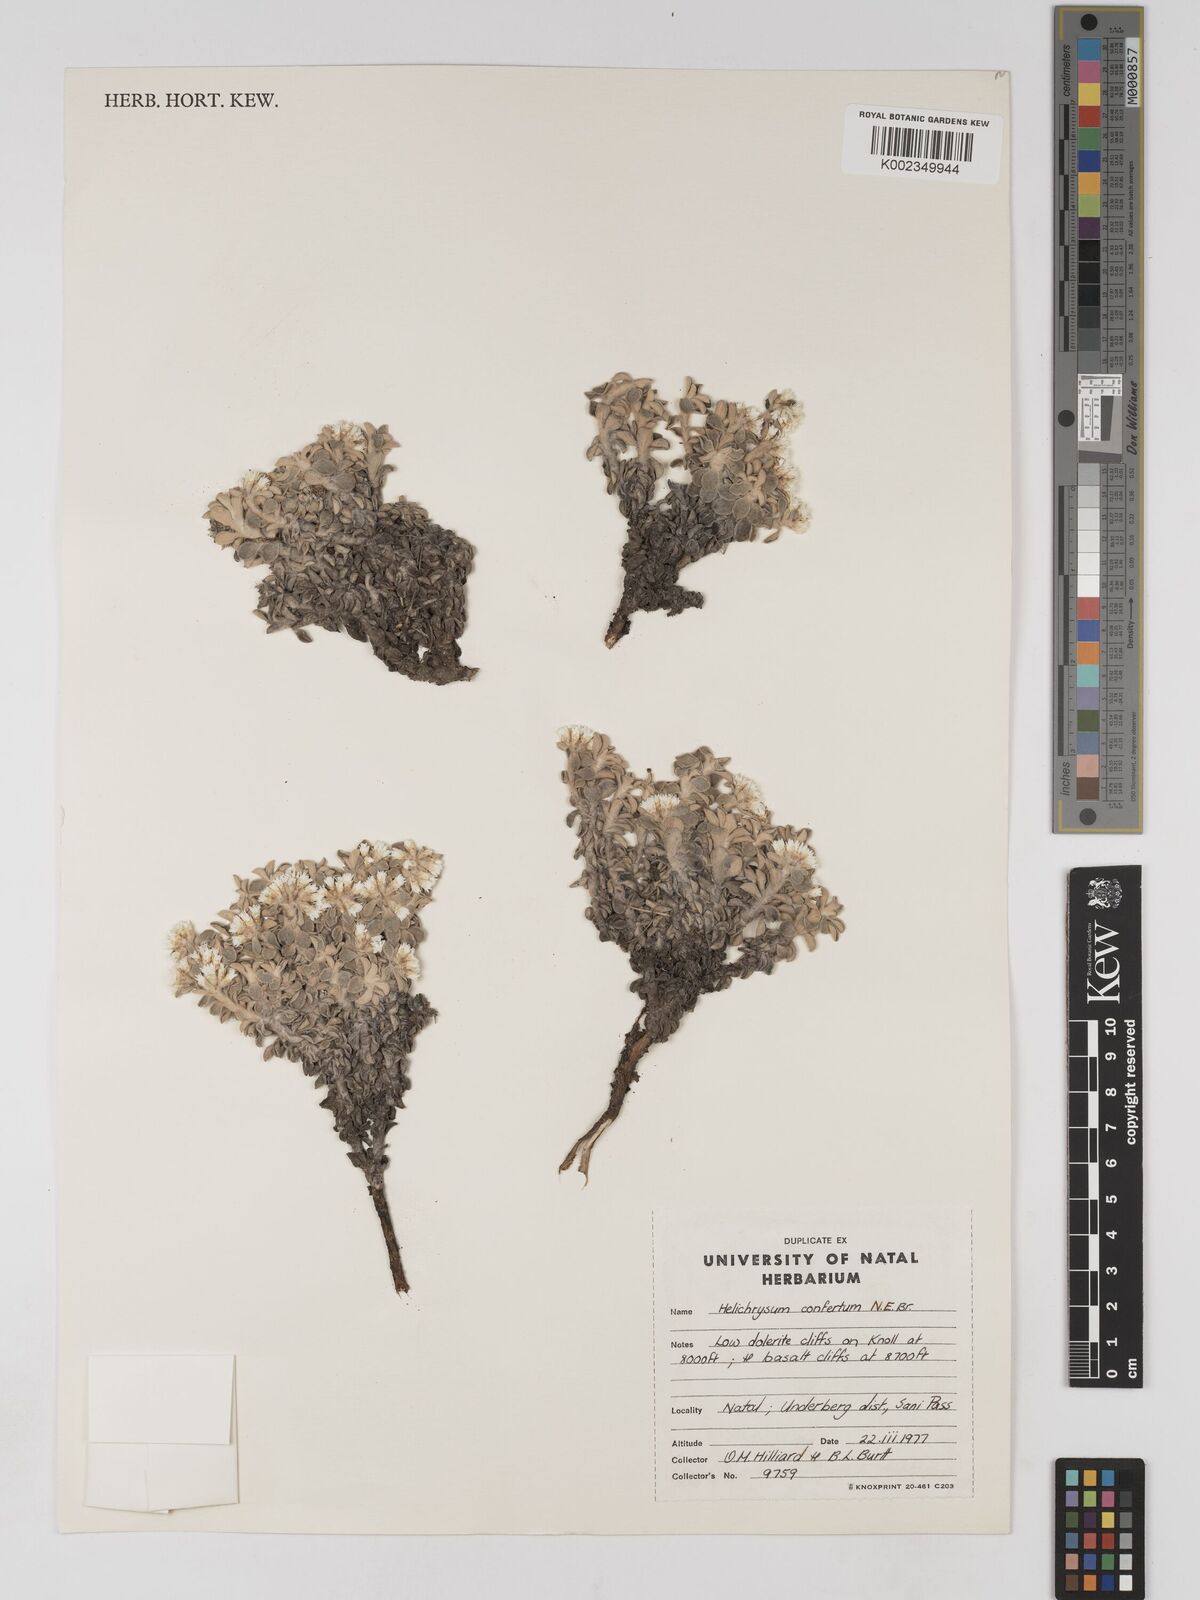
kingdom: Plantae
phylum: Tracheophyta
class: Magnoliopsida
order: Asterales
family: Asteraceae
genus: Helichrysum
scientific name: Helichrysum confertum
